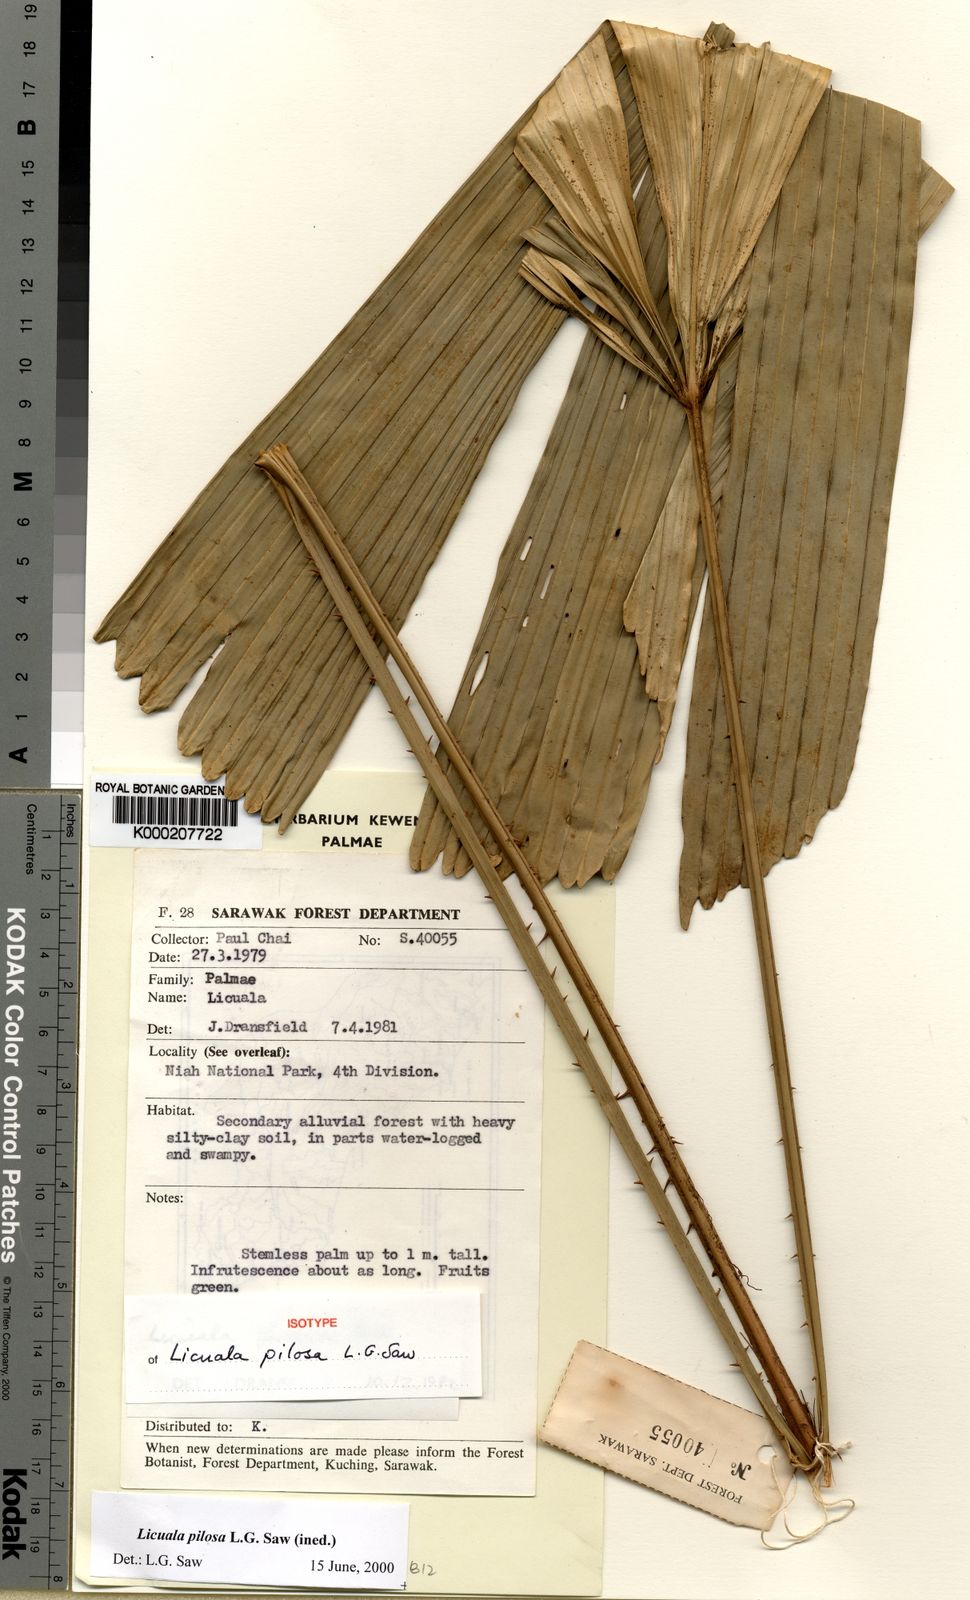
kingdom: Plantae
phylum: Tracheophyta
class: Liliopsida
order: Arecales
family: Arecaceae
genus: Licuala
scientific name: Licuala pilosa
